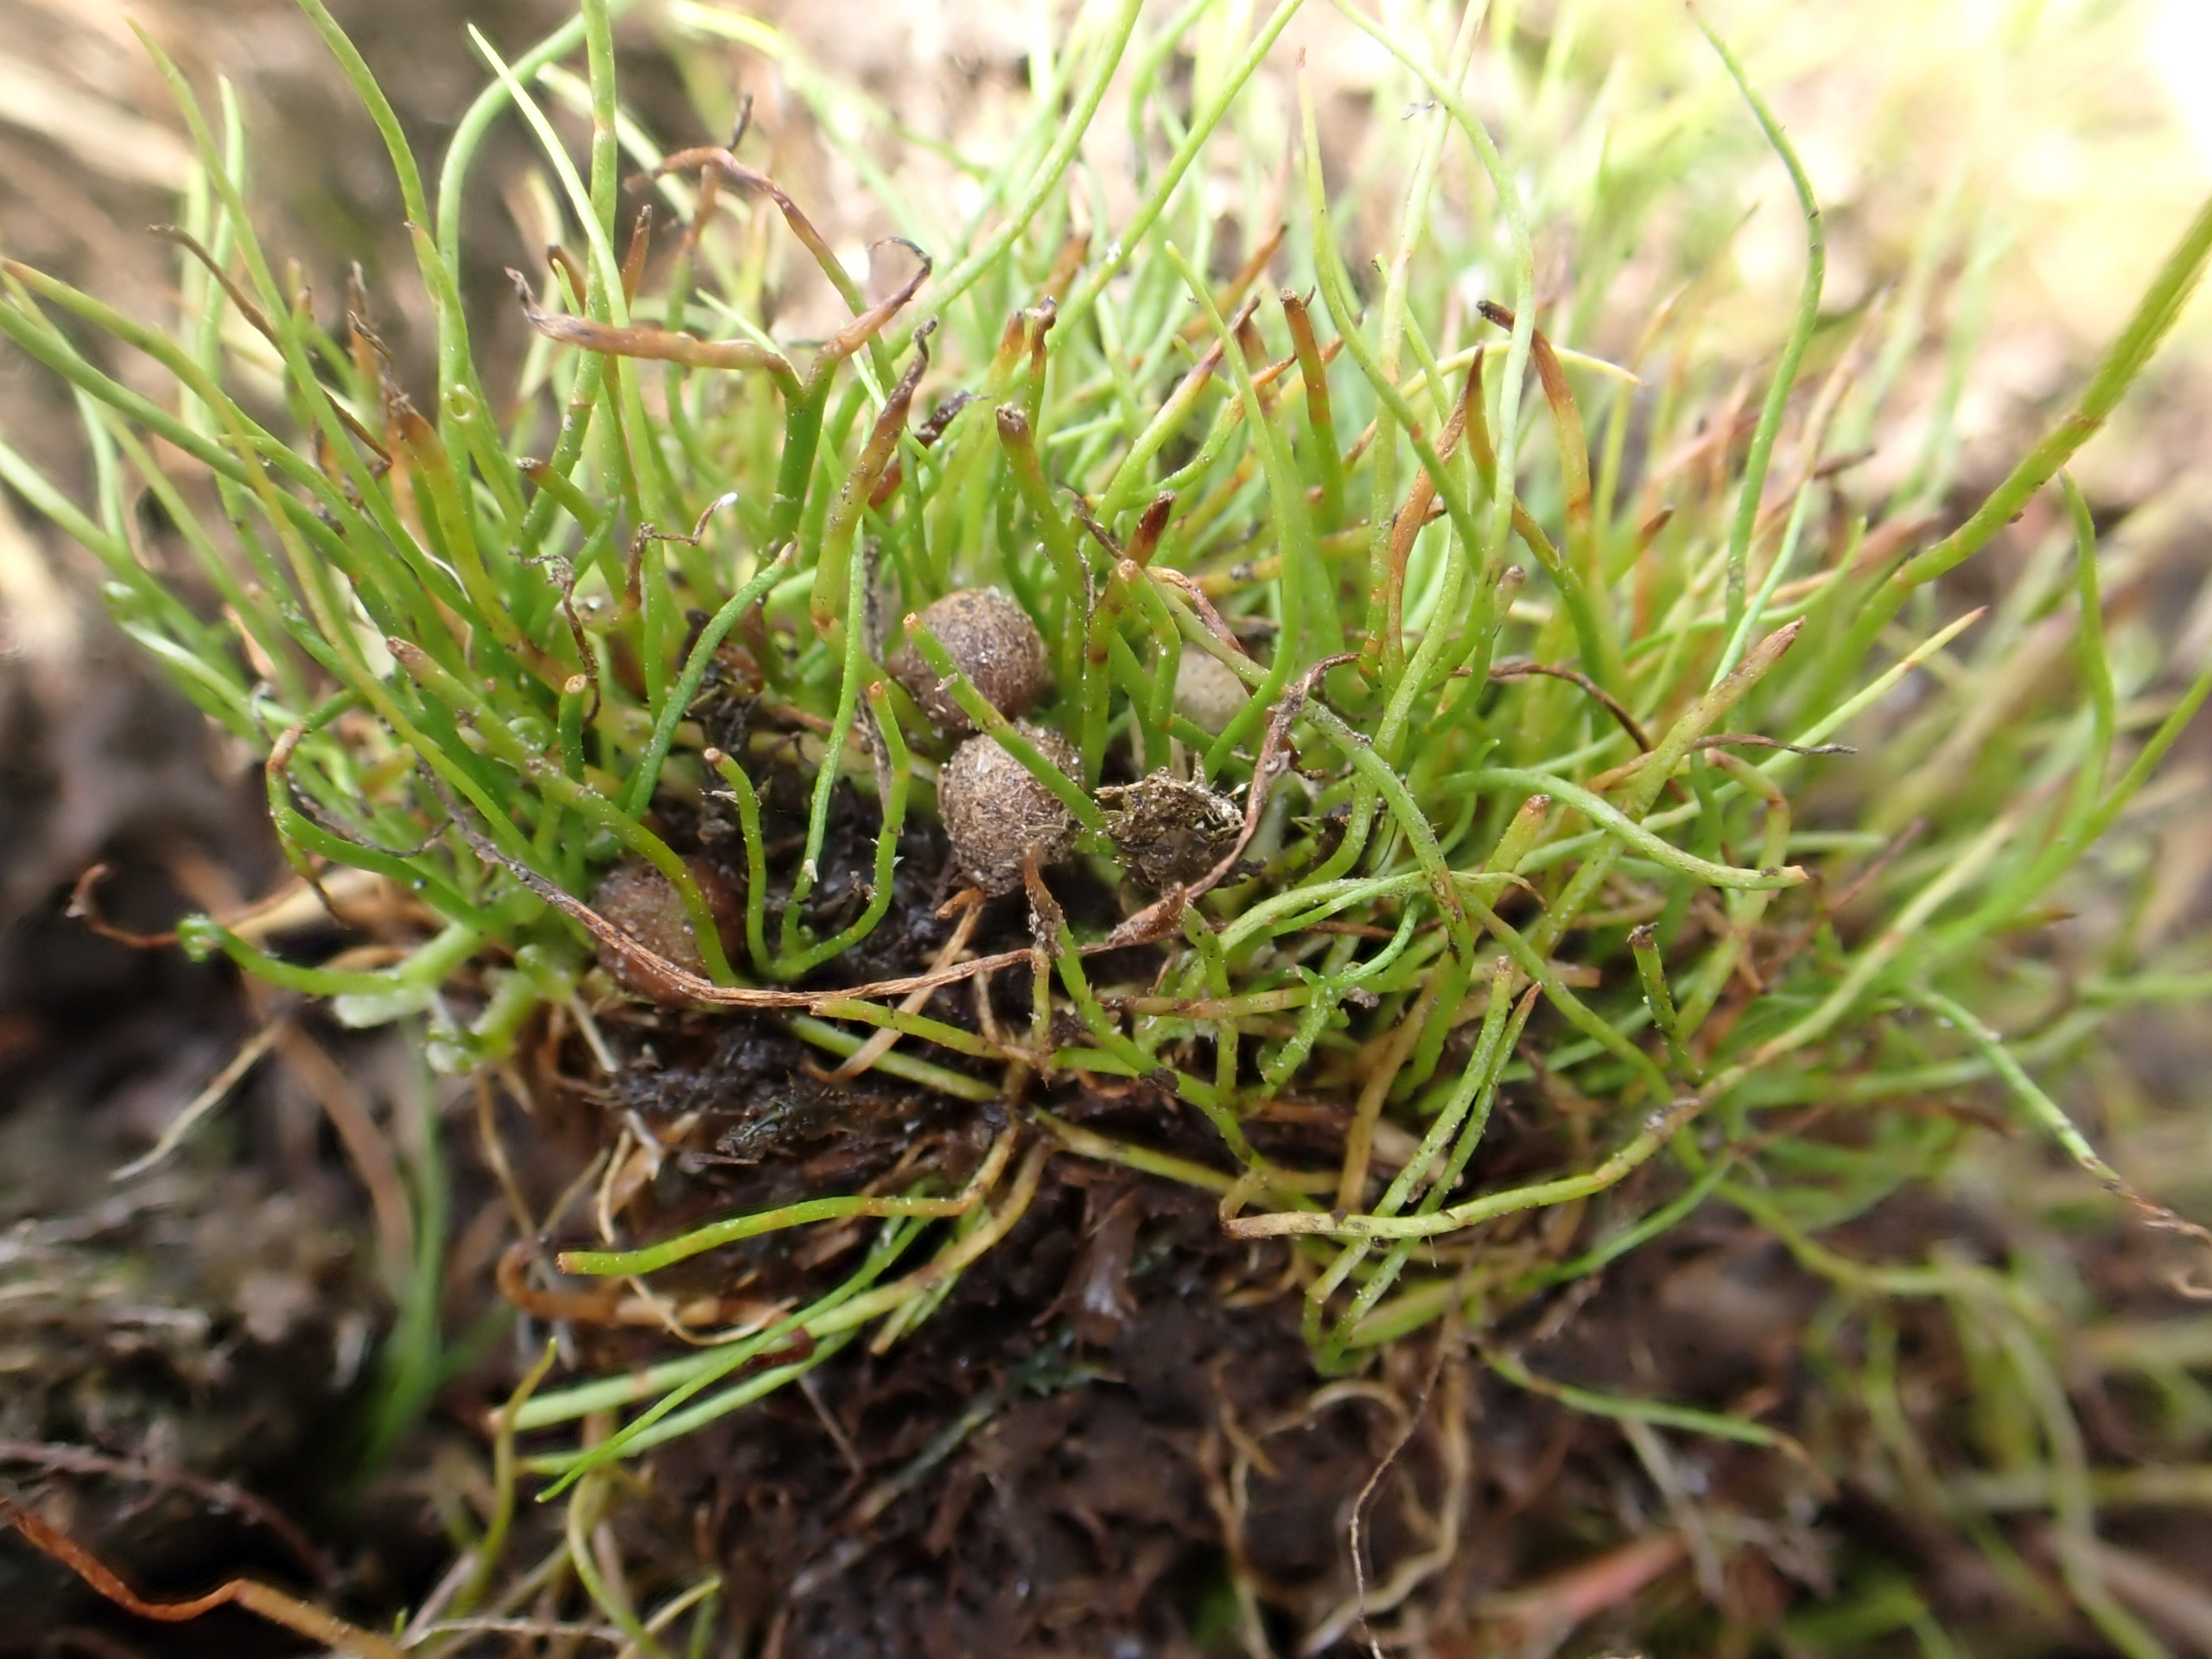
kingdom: Plantae
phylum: Tracheophyta
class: Polypodiopsida
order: Salviniales
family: Marsileaceae
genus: Pilularia
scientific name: Pilularia globulifera
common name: Pilledrager
